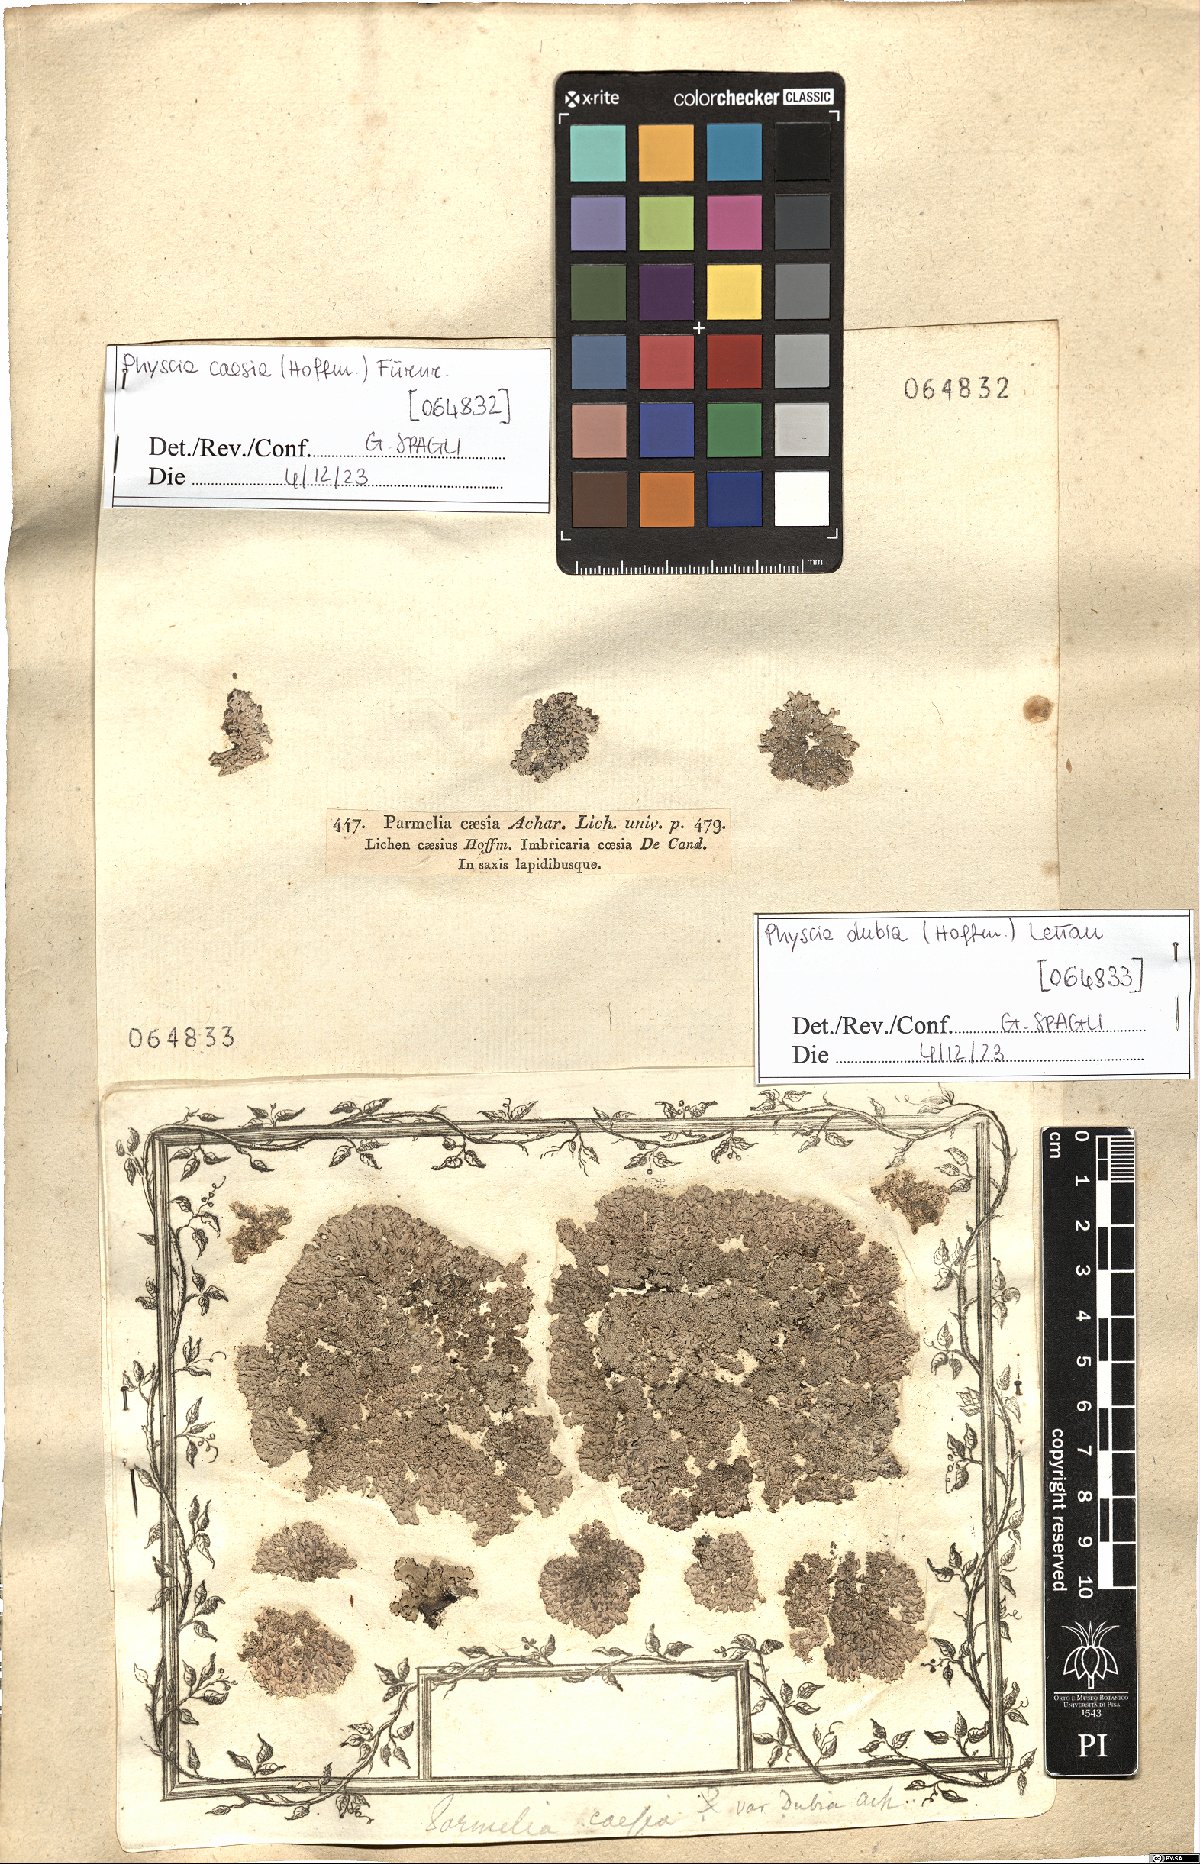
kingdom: Fungi
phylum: Ascomycota
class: Lecanoromycetes
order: Caliciales
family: Physciaceae
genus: Physcia
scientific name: Physcia dubia
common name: Powder-tipped rosette lichen
